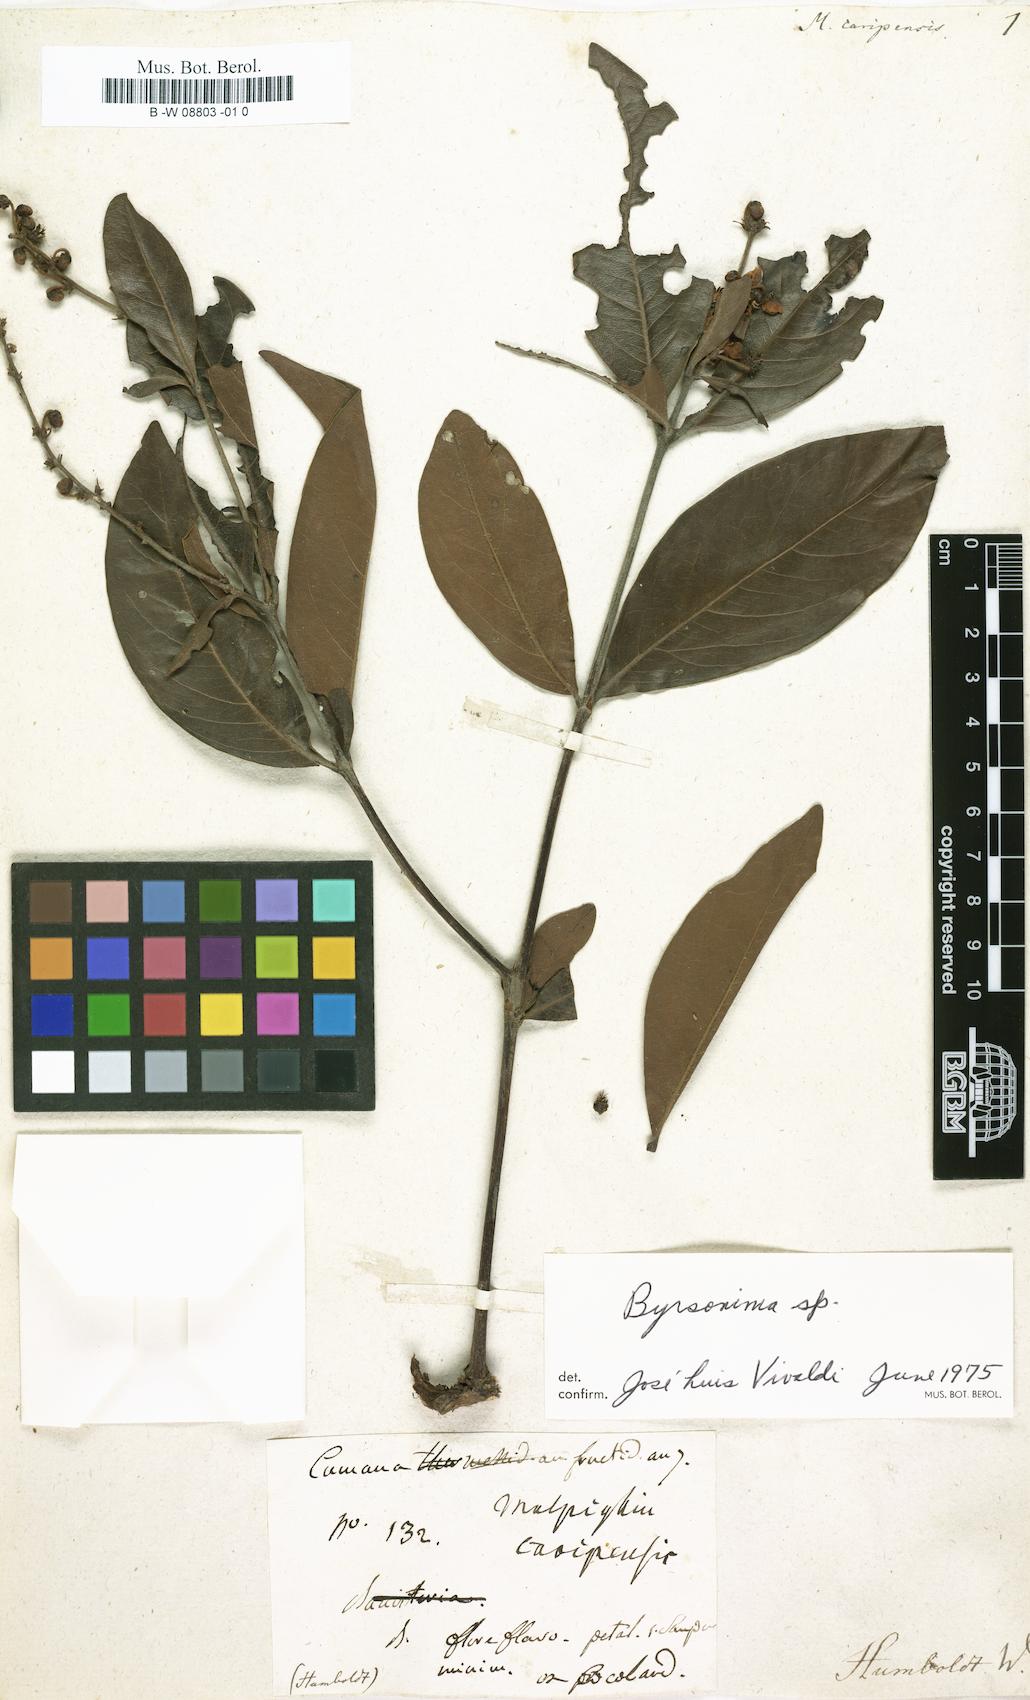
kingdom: Plantae
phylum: Tracheophyta
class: Magnoliopsida
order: Malpighiales
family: Malpighiaceae
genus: Malpighia
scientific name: Malpighia
